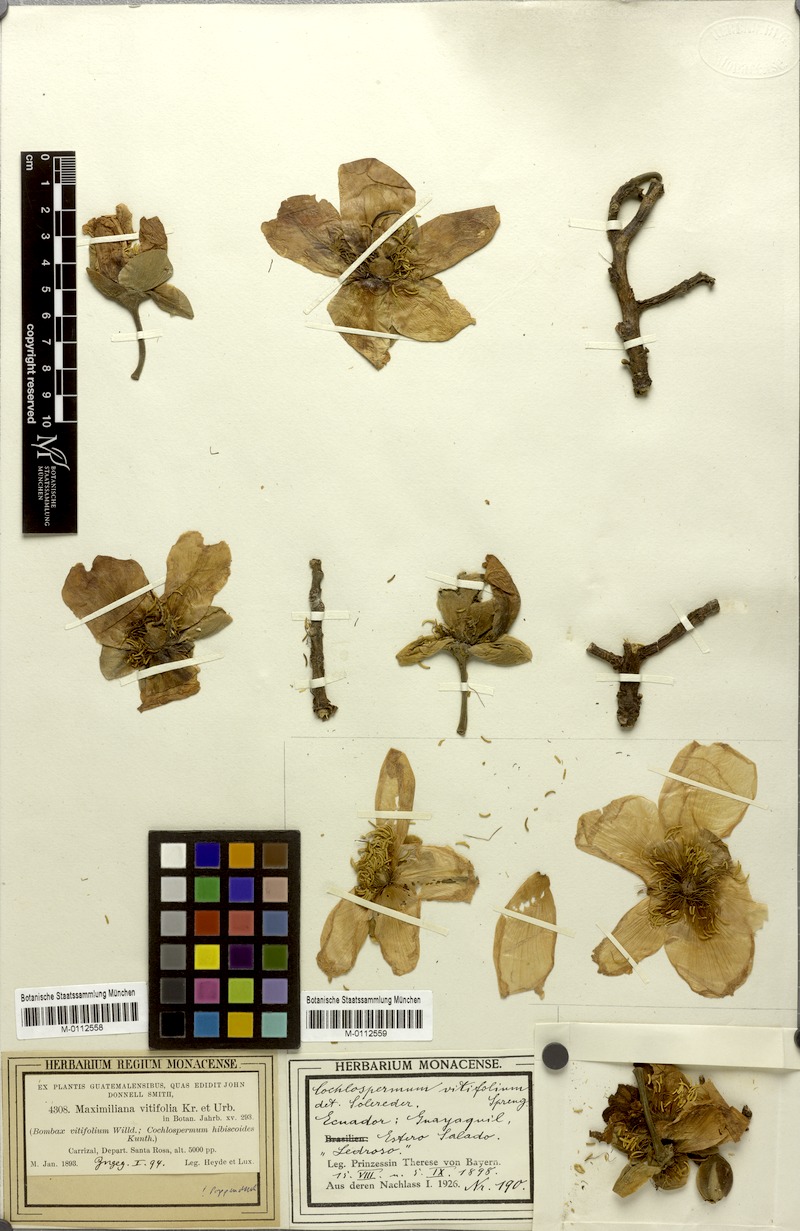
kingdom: Plantae
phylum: Tracheophyta
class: Magnoliopsida
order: Malvales
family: Cochlospermaceae
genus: Cochlospermum
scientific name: Cochlospermum vitifolium
